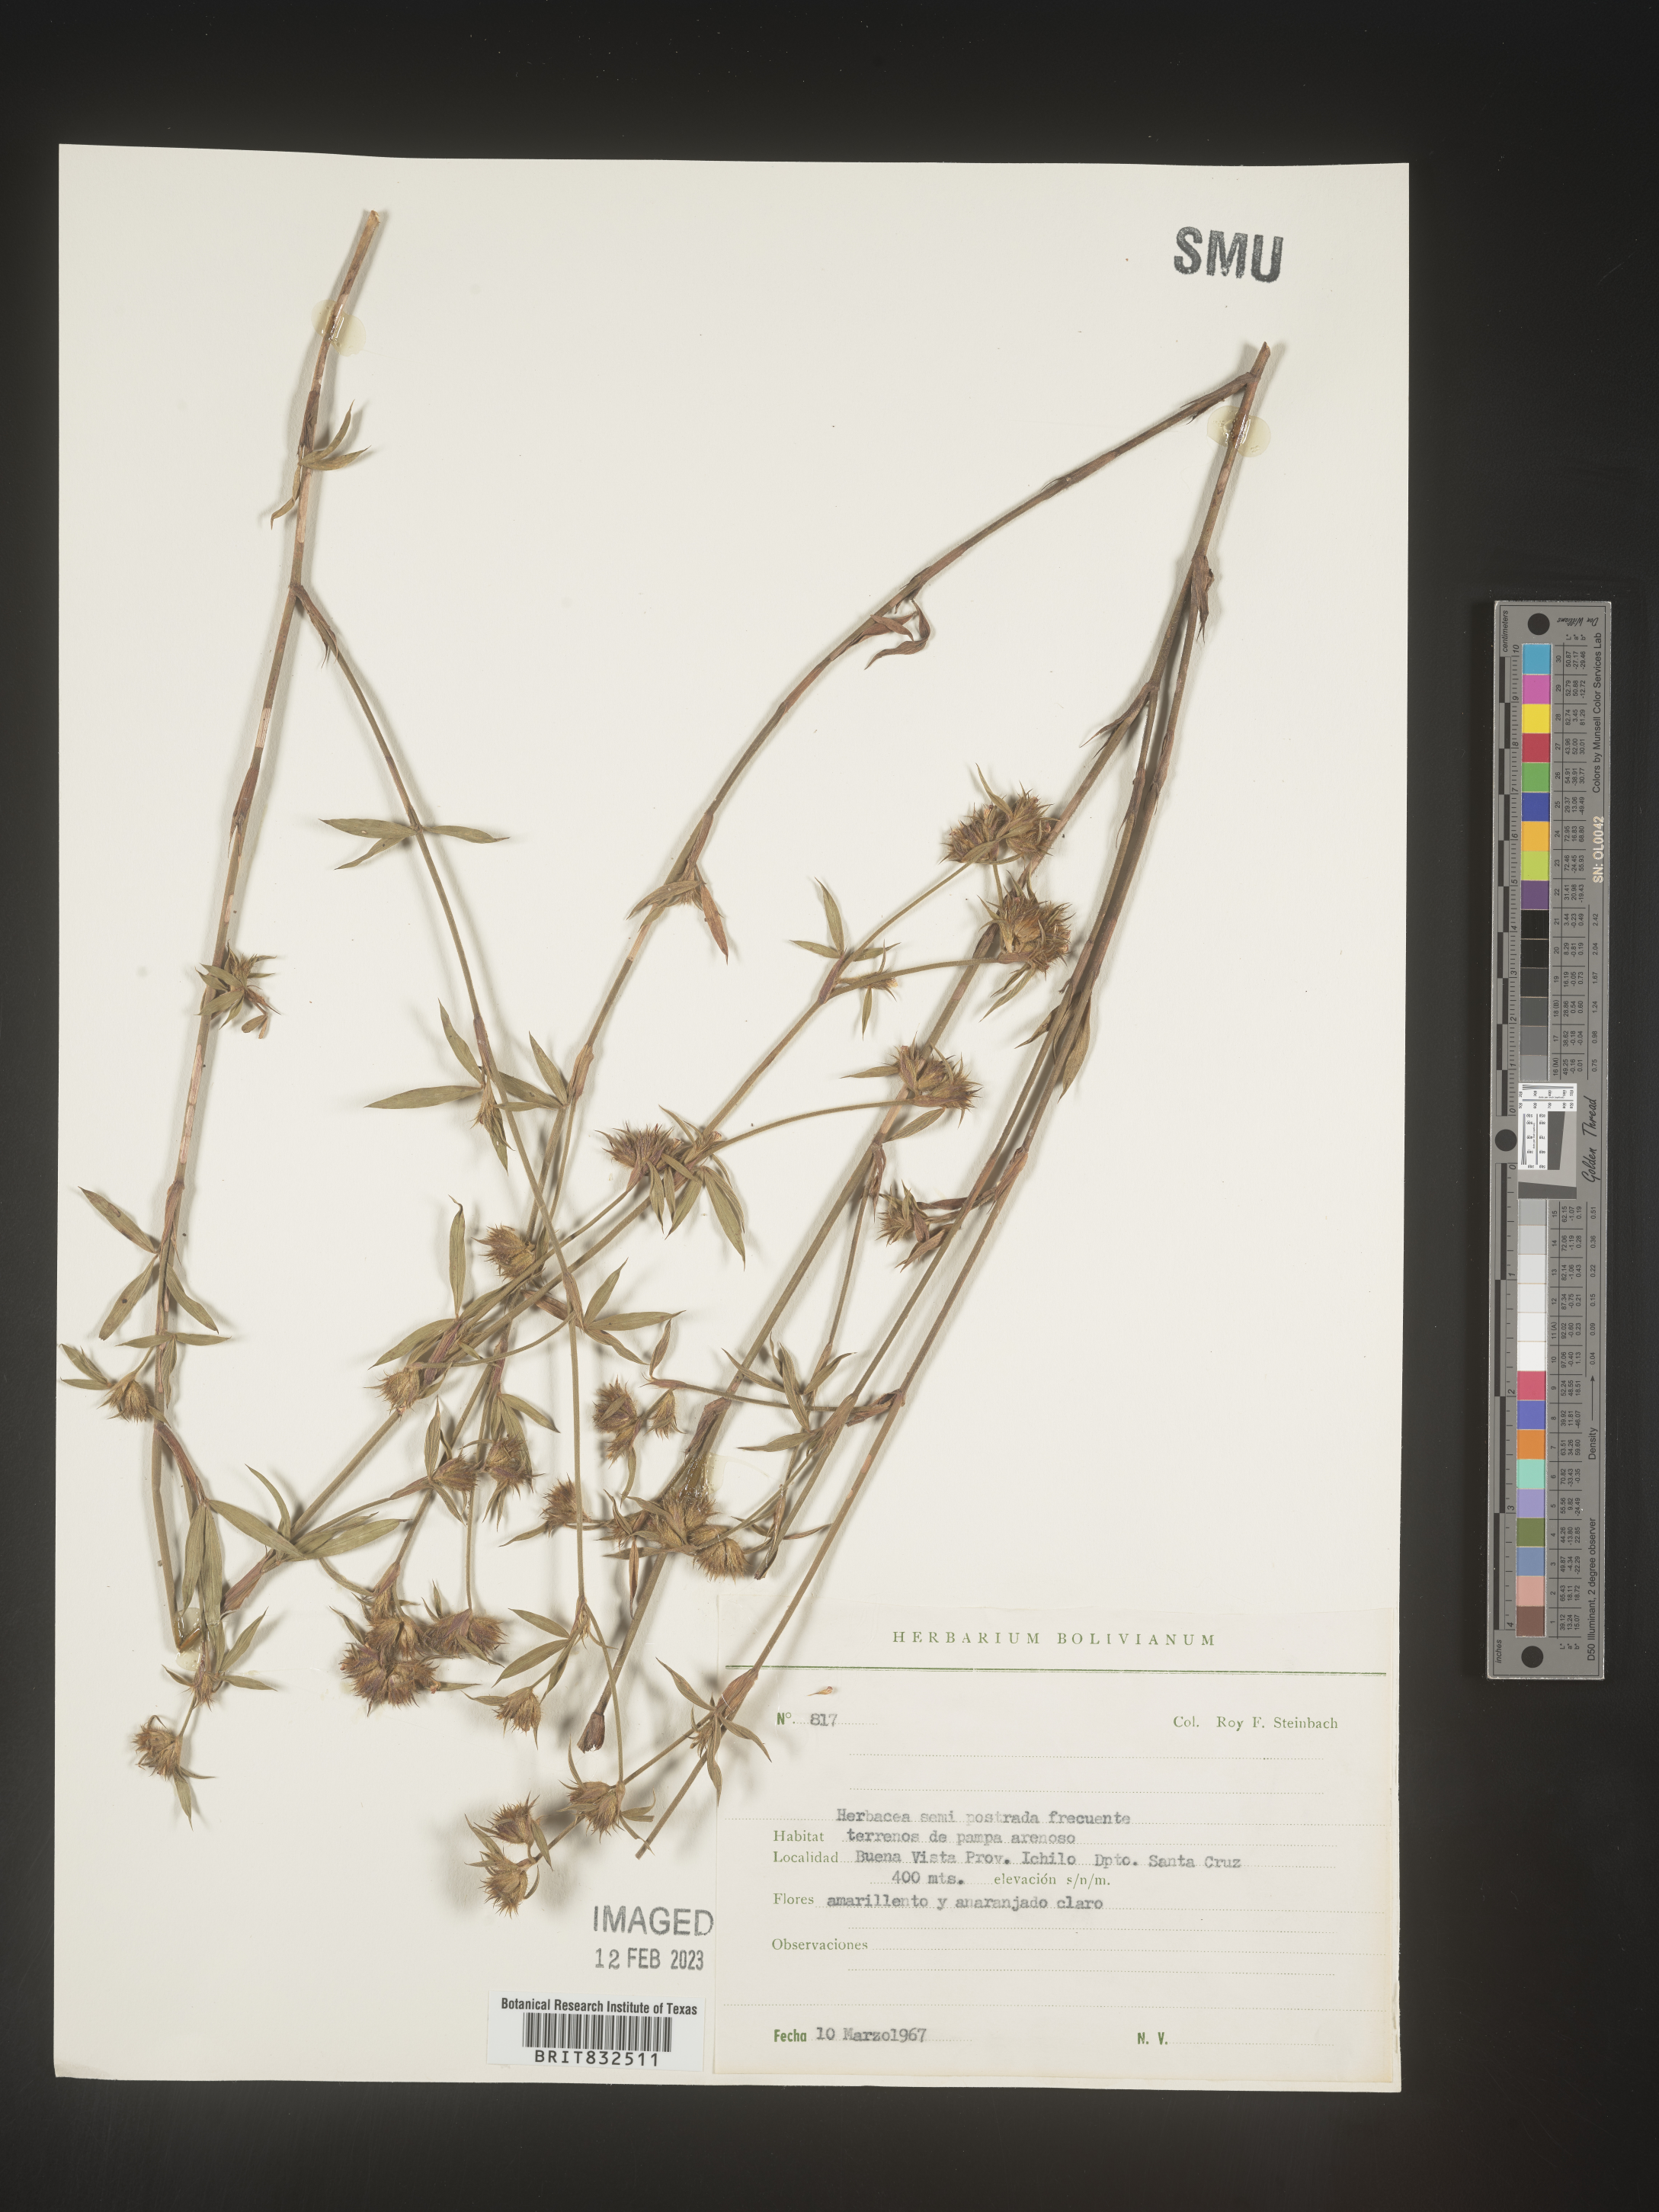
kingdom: Plantae
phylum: Tracheophyta
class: Magnoliopsida
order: Fabales
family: Fabaceae
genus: Stylosanthes
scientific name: Stylosanthes
